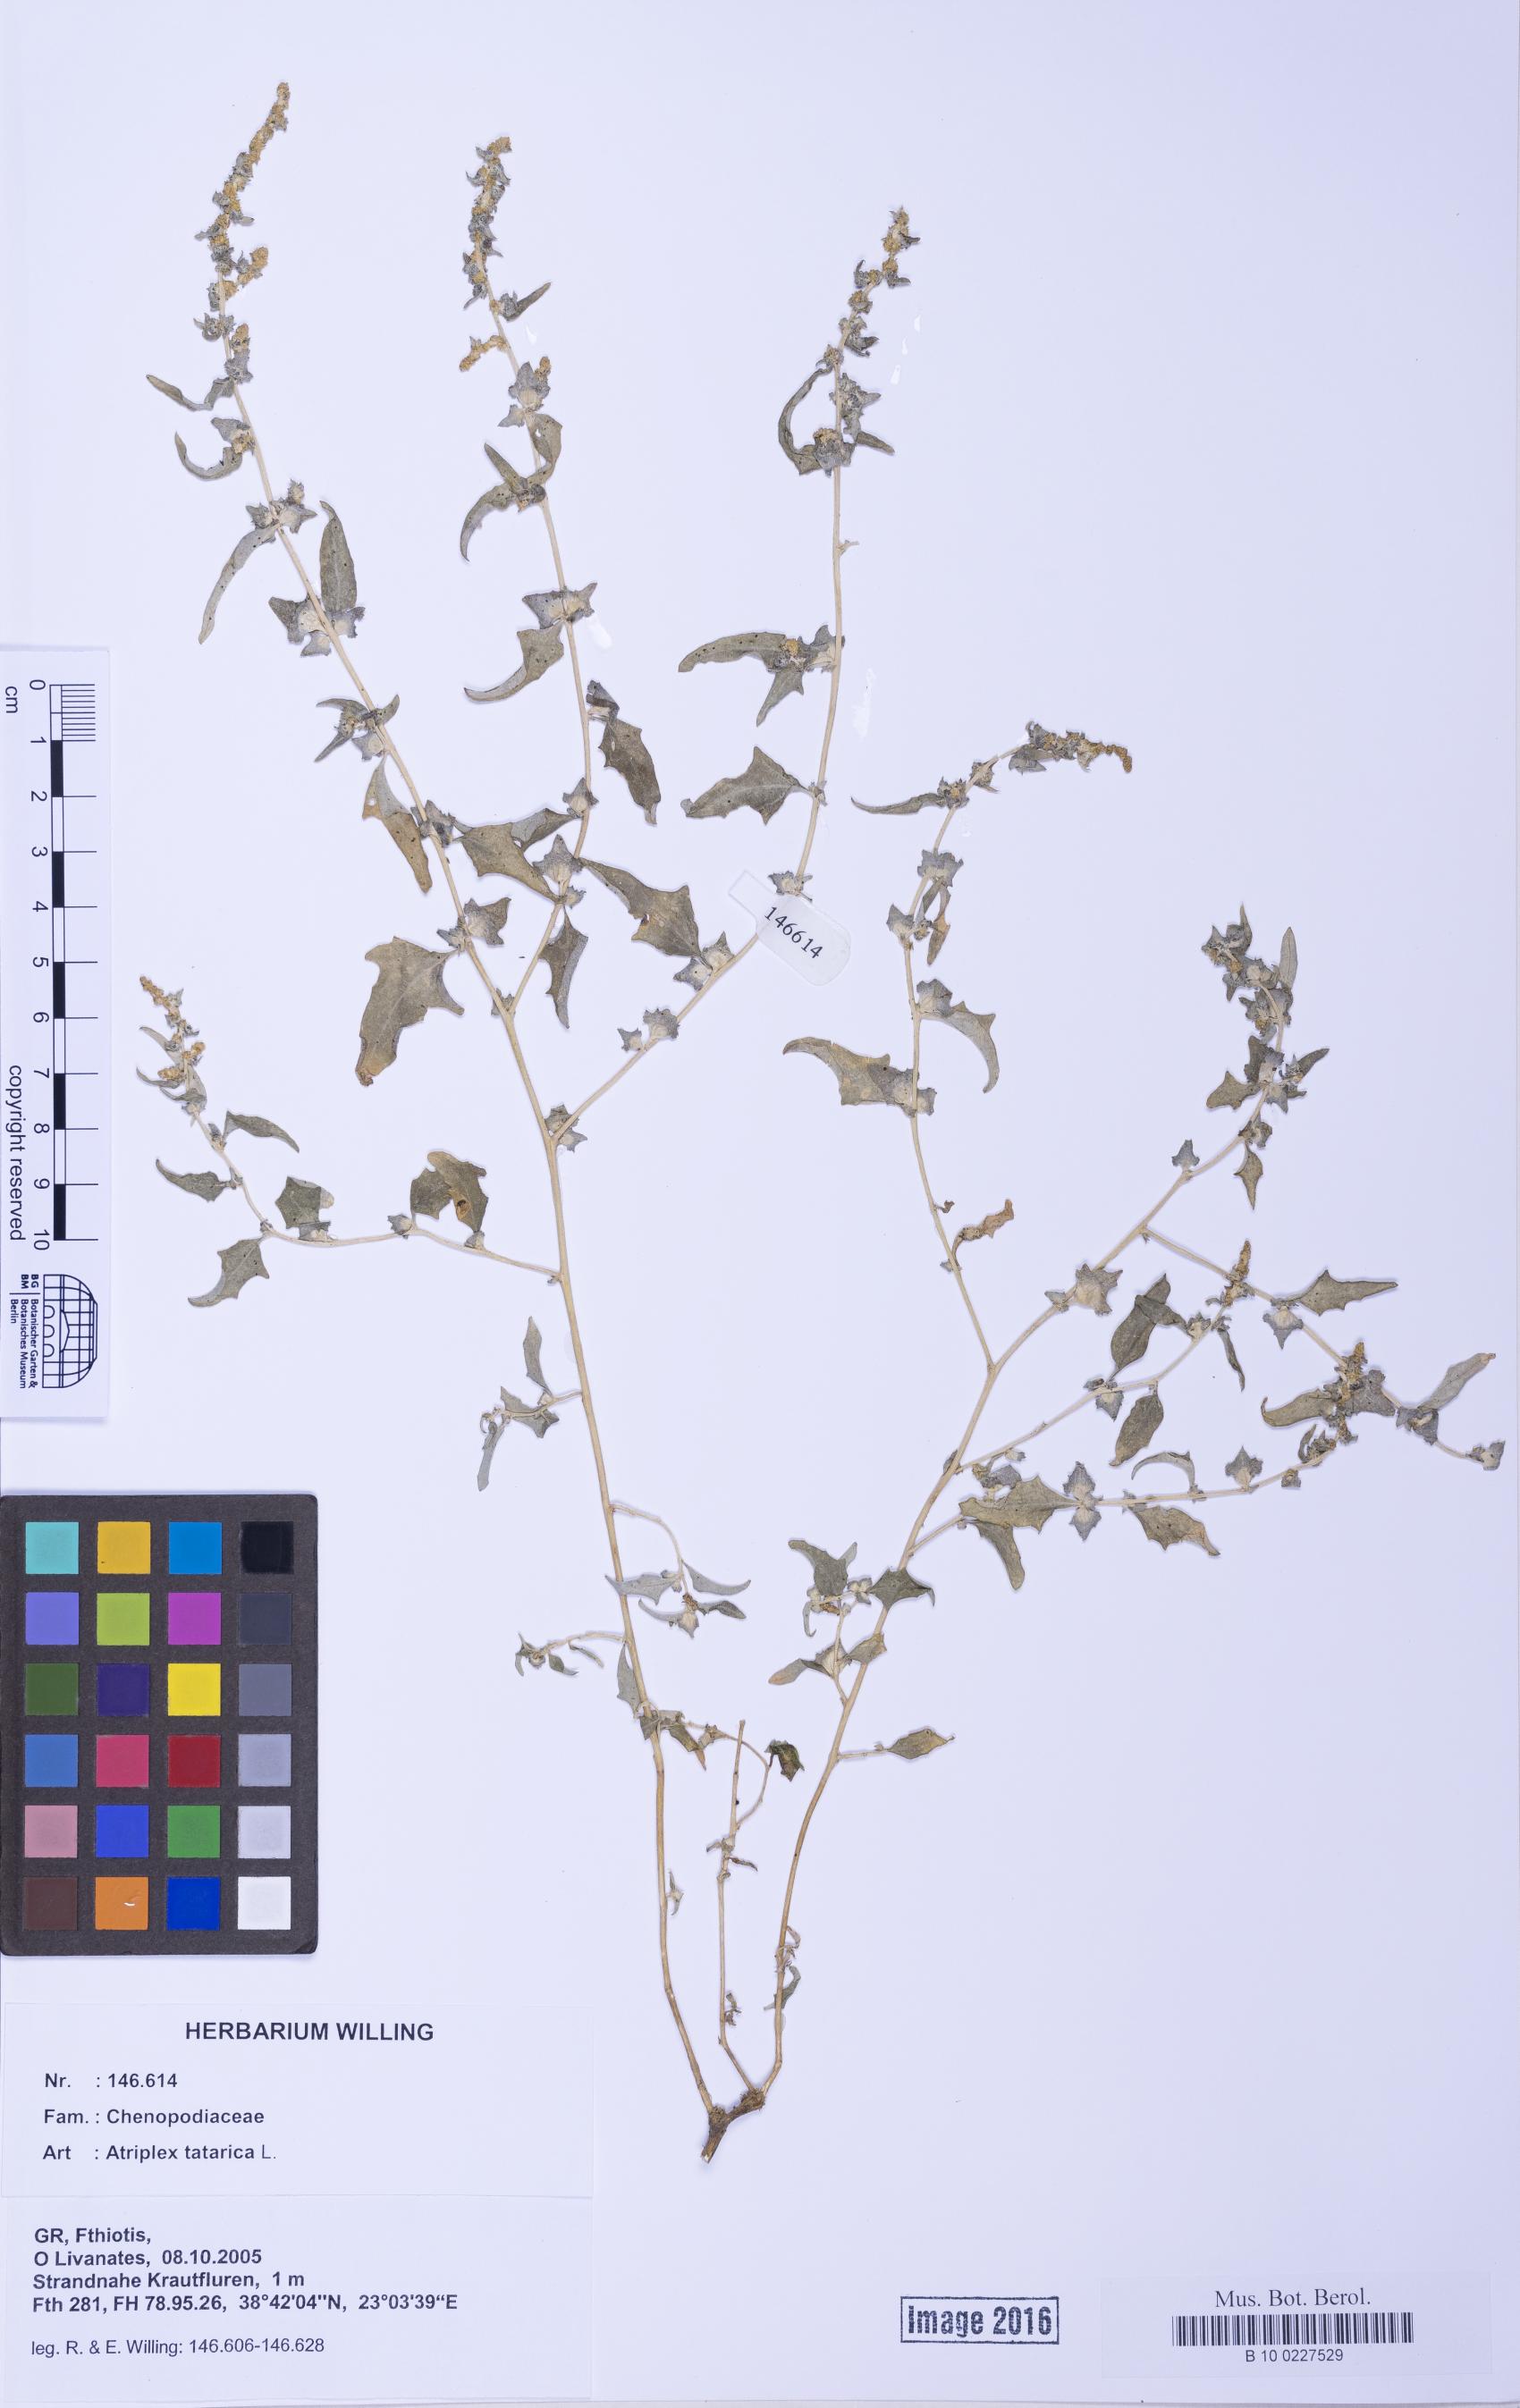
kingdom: Plantae
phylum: Tracheophyta
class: Magnoliopsida
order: Caryophyllales
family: Amaranthaceae
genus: Atriplex
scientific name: Atriplex tatarica
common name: Tatarian orache
